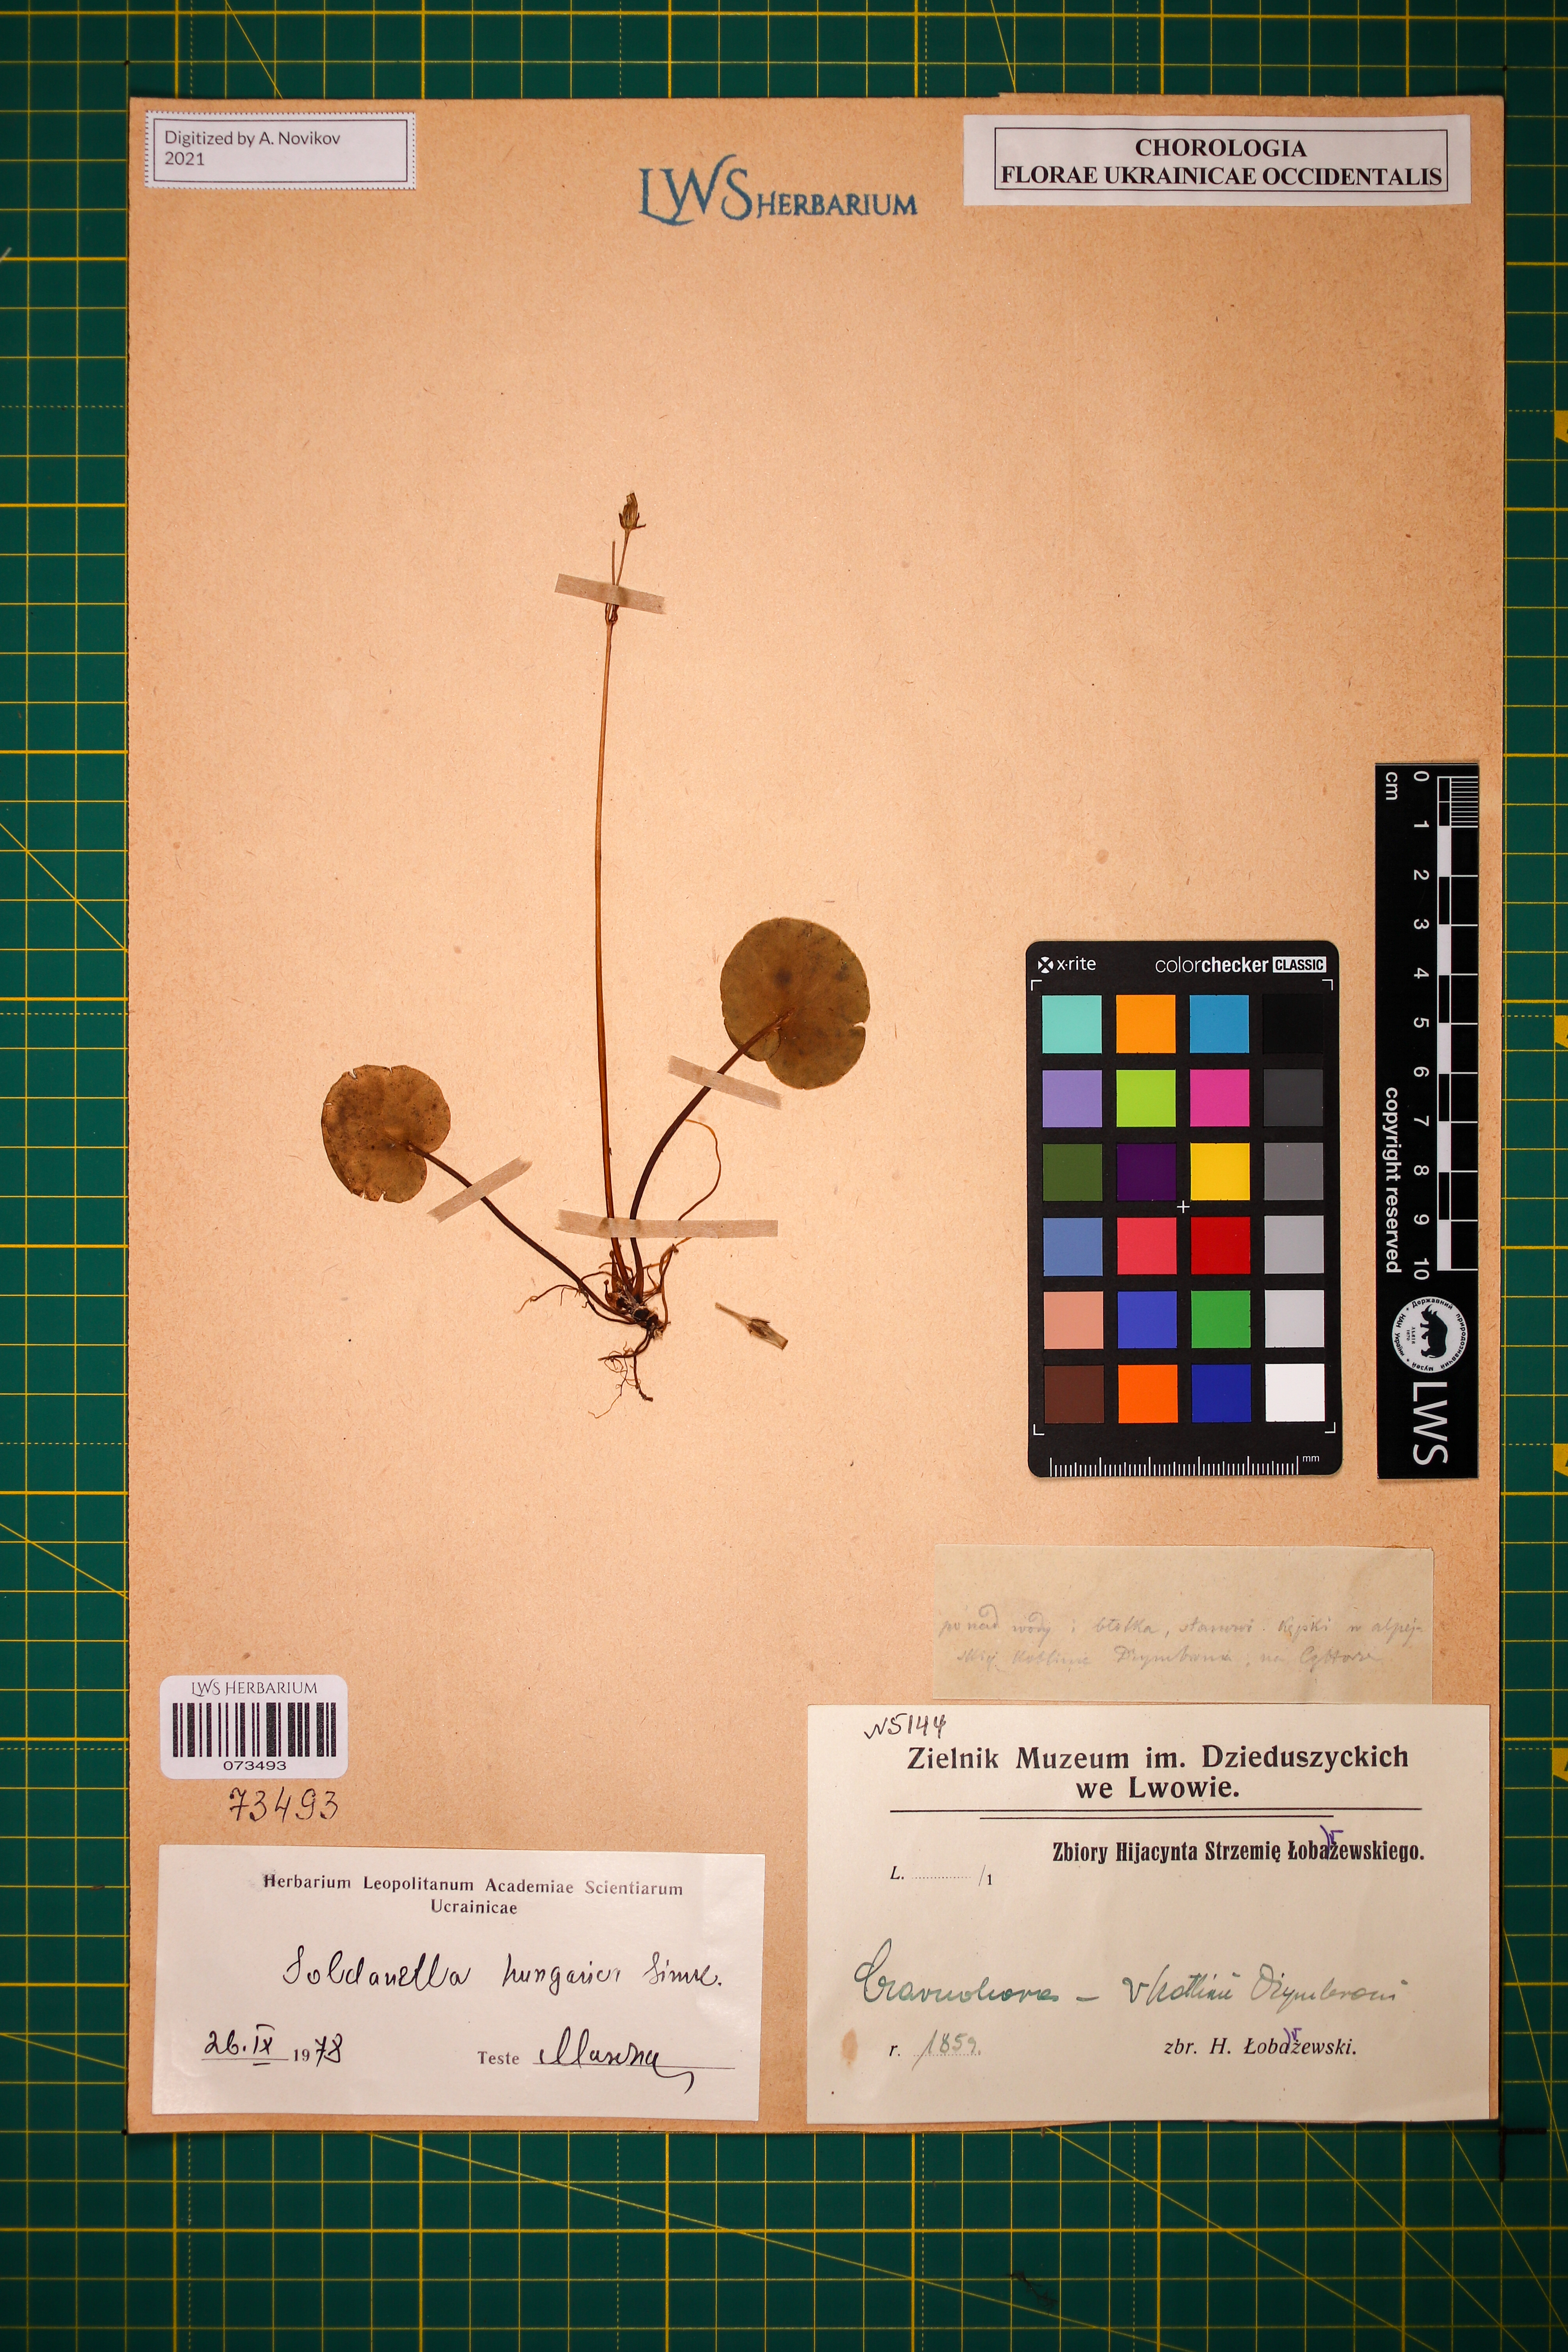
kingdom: Plantae
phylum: Tracheophyta
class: Magnoliopsida
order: Ericales
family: Primulaceae
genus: Soldanella
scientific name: Soldanella hungarica
